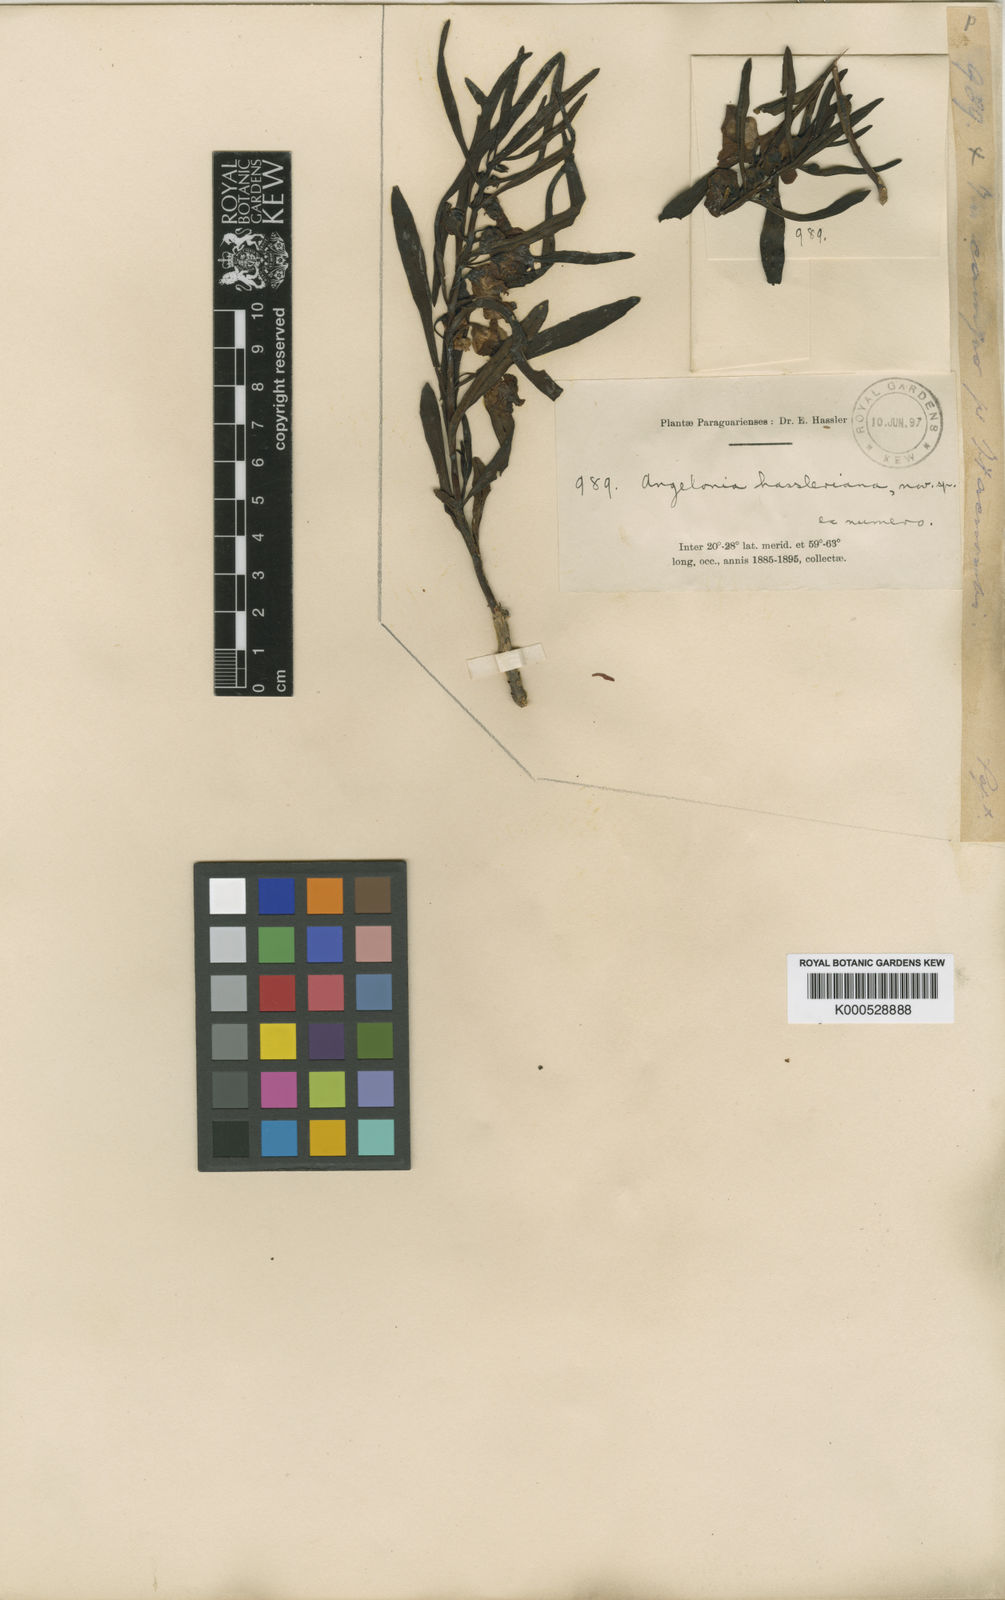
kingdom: Plantae
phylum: Tracheophyta
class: Magnoliopsida
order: Lamiales
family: Plantaginaceae
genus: Angelonia
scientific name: Angelonia hassleriana
